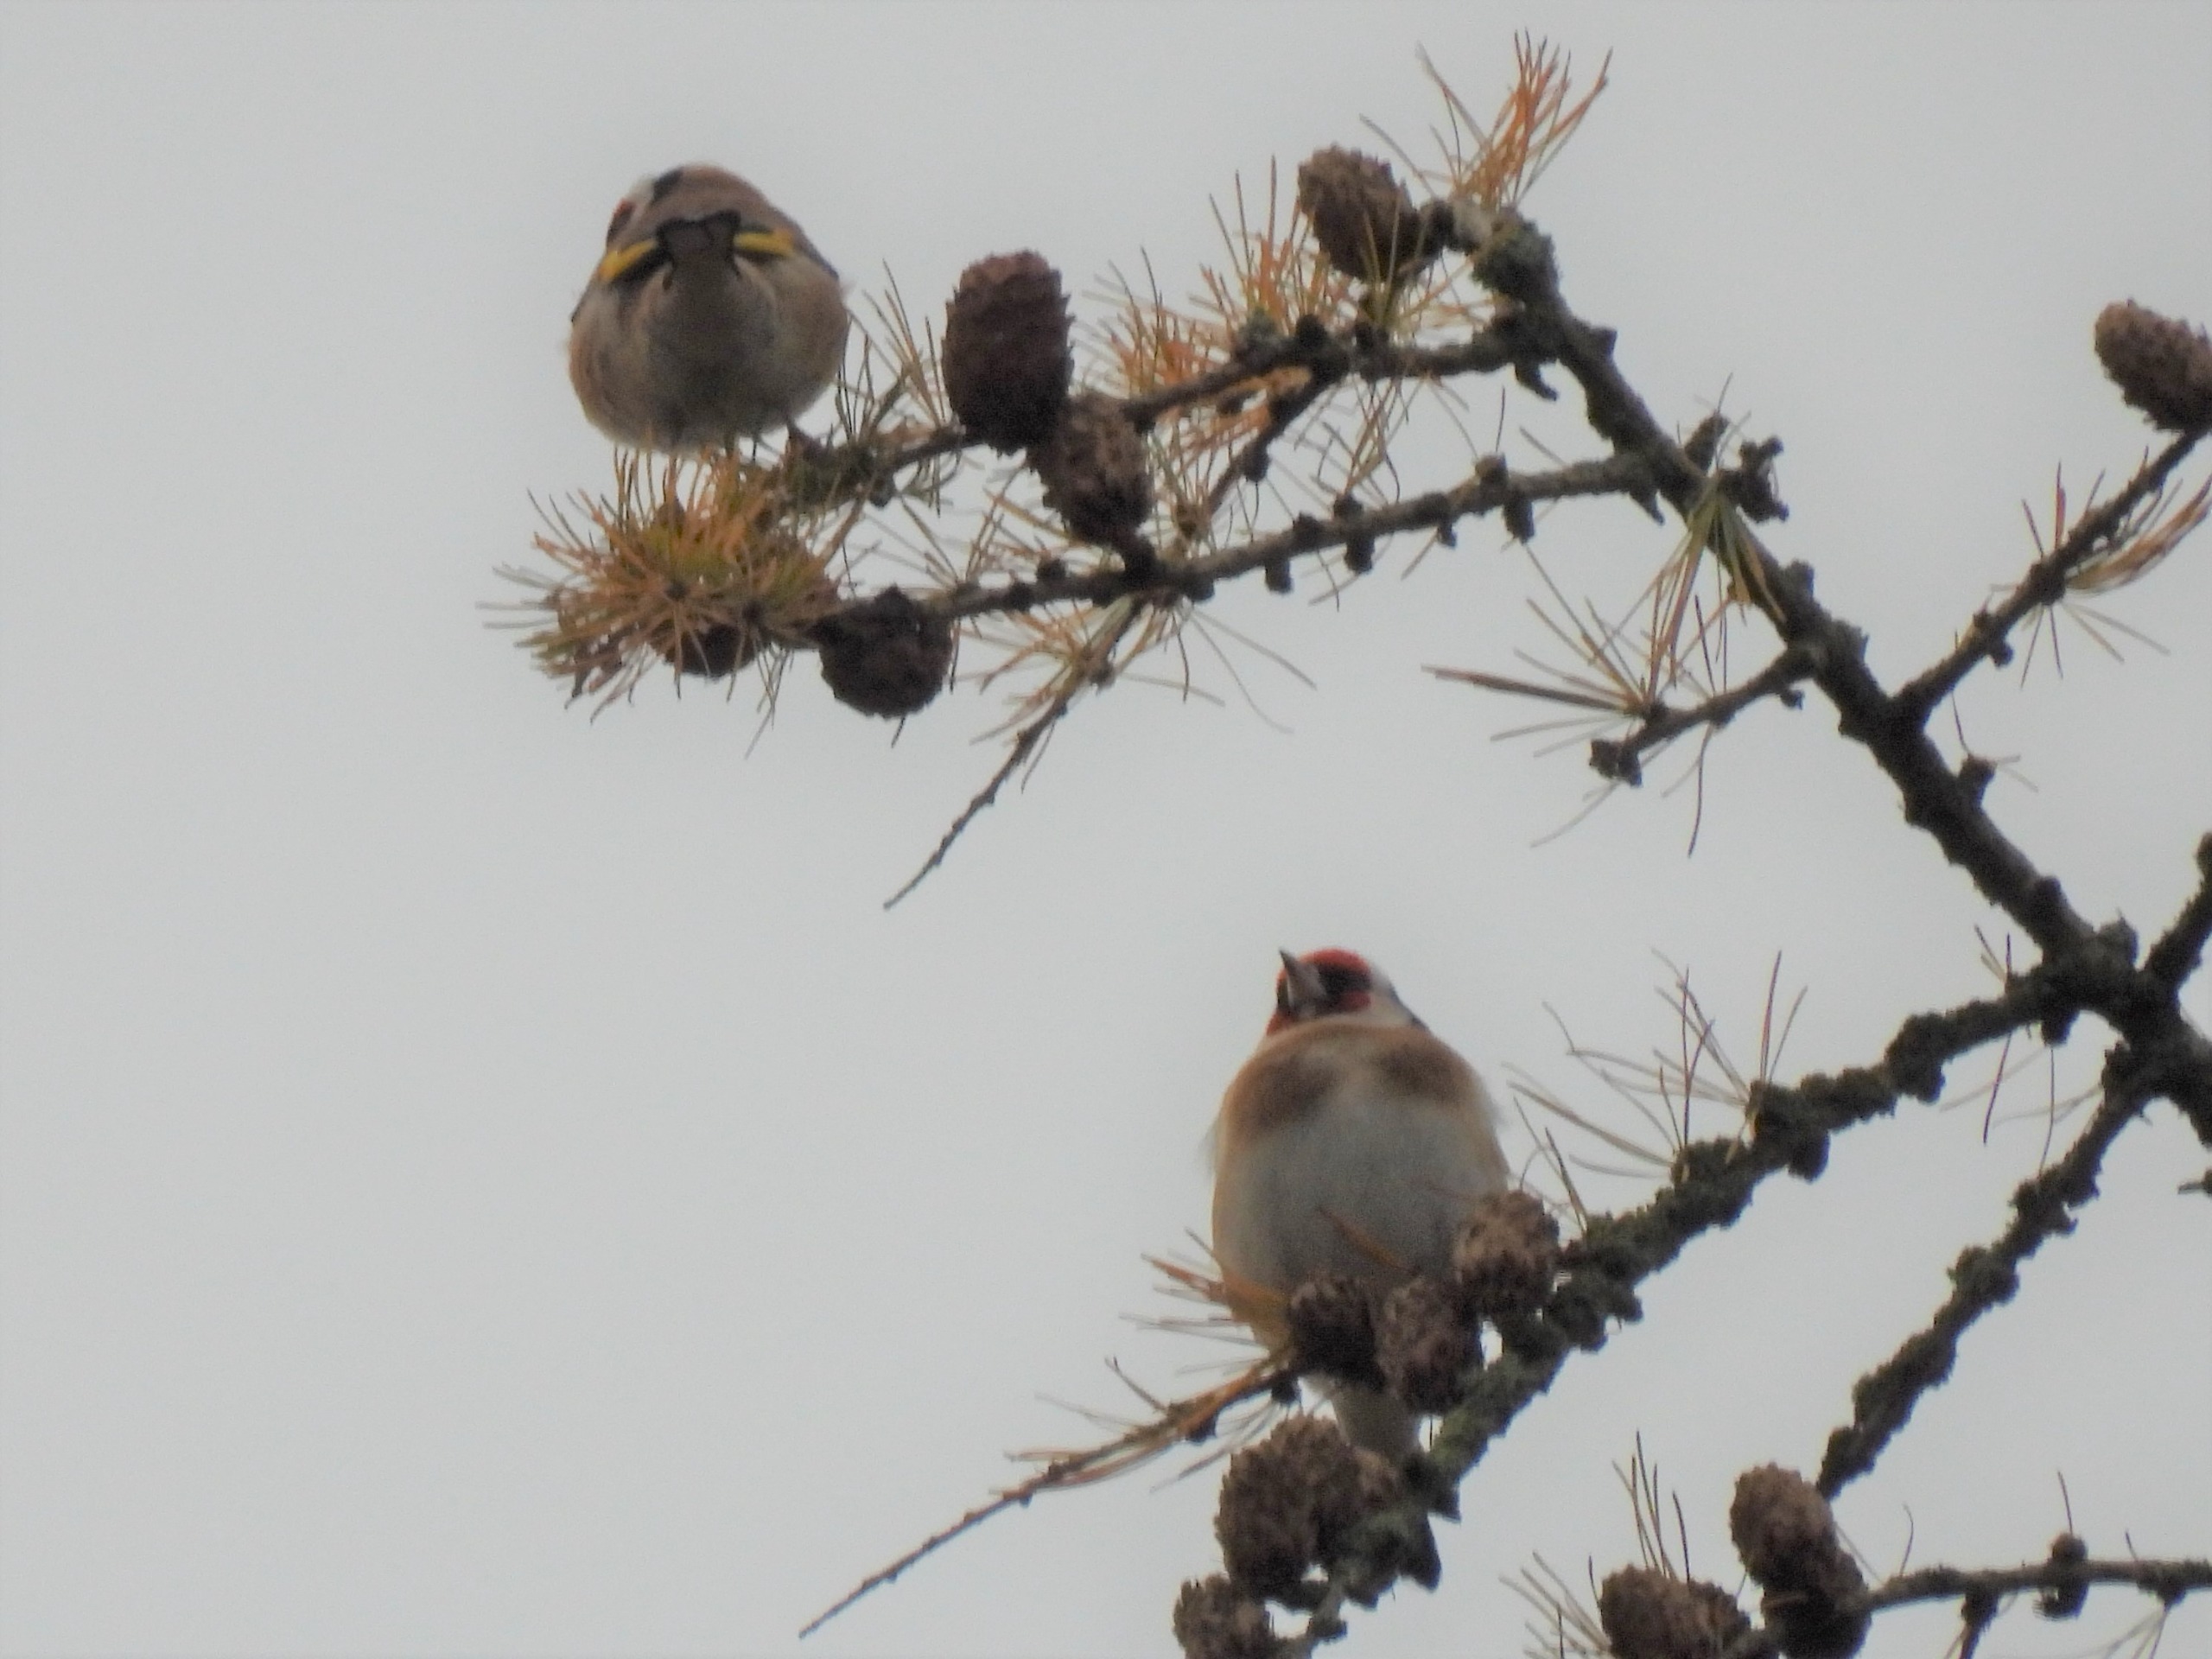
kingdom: Animalia
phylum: Chordata
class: Aves
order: Passeriformes
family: Fringillidae
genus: Carduelis
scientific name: Carduelis carduelis
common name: Stillits
